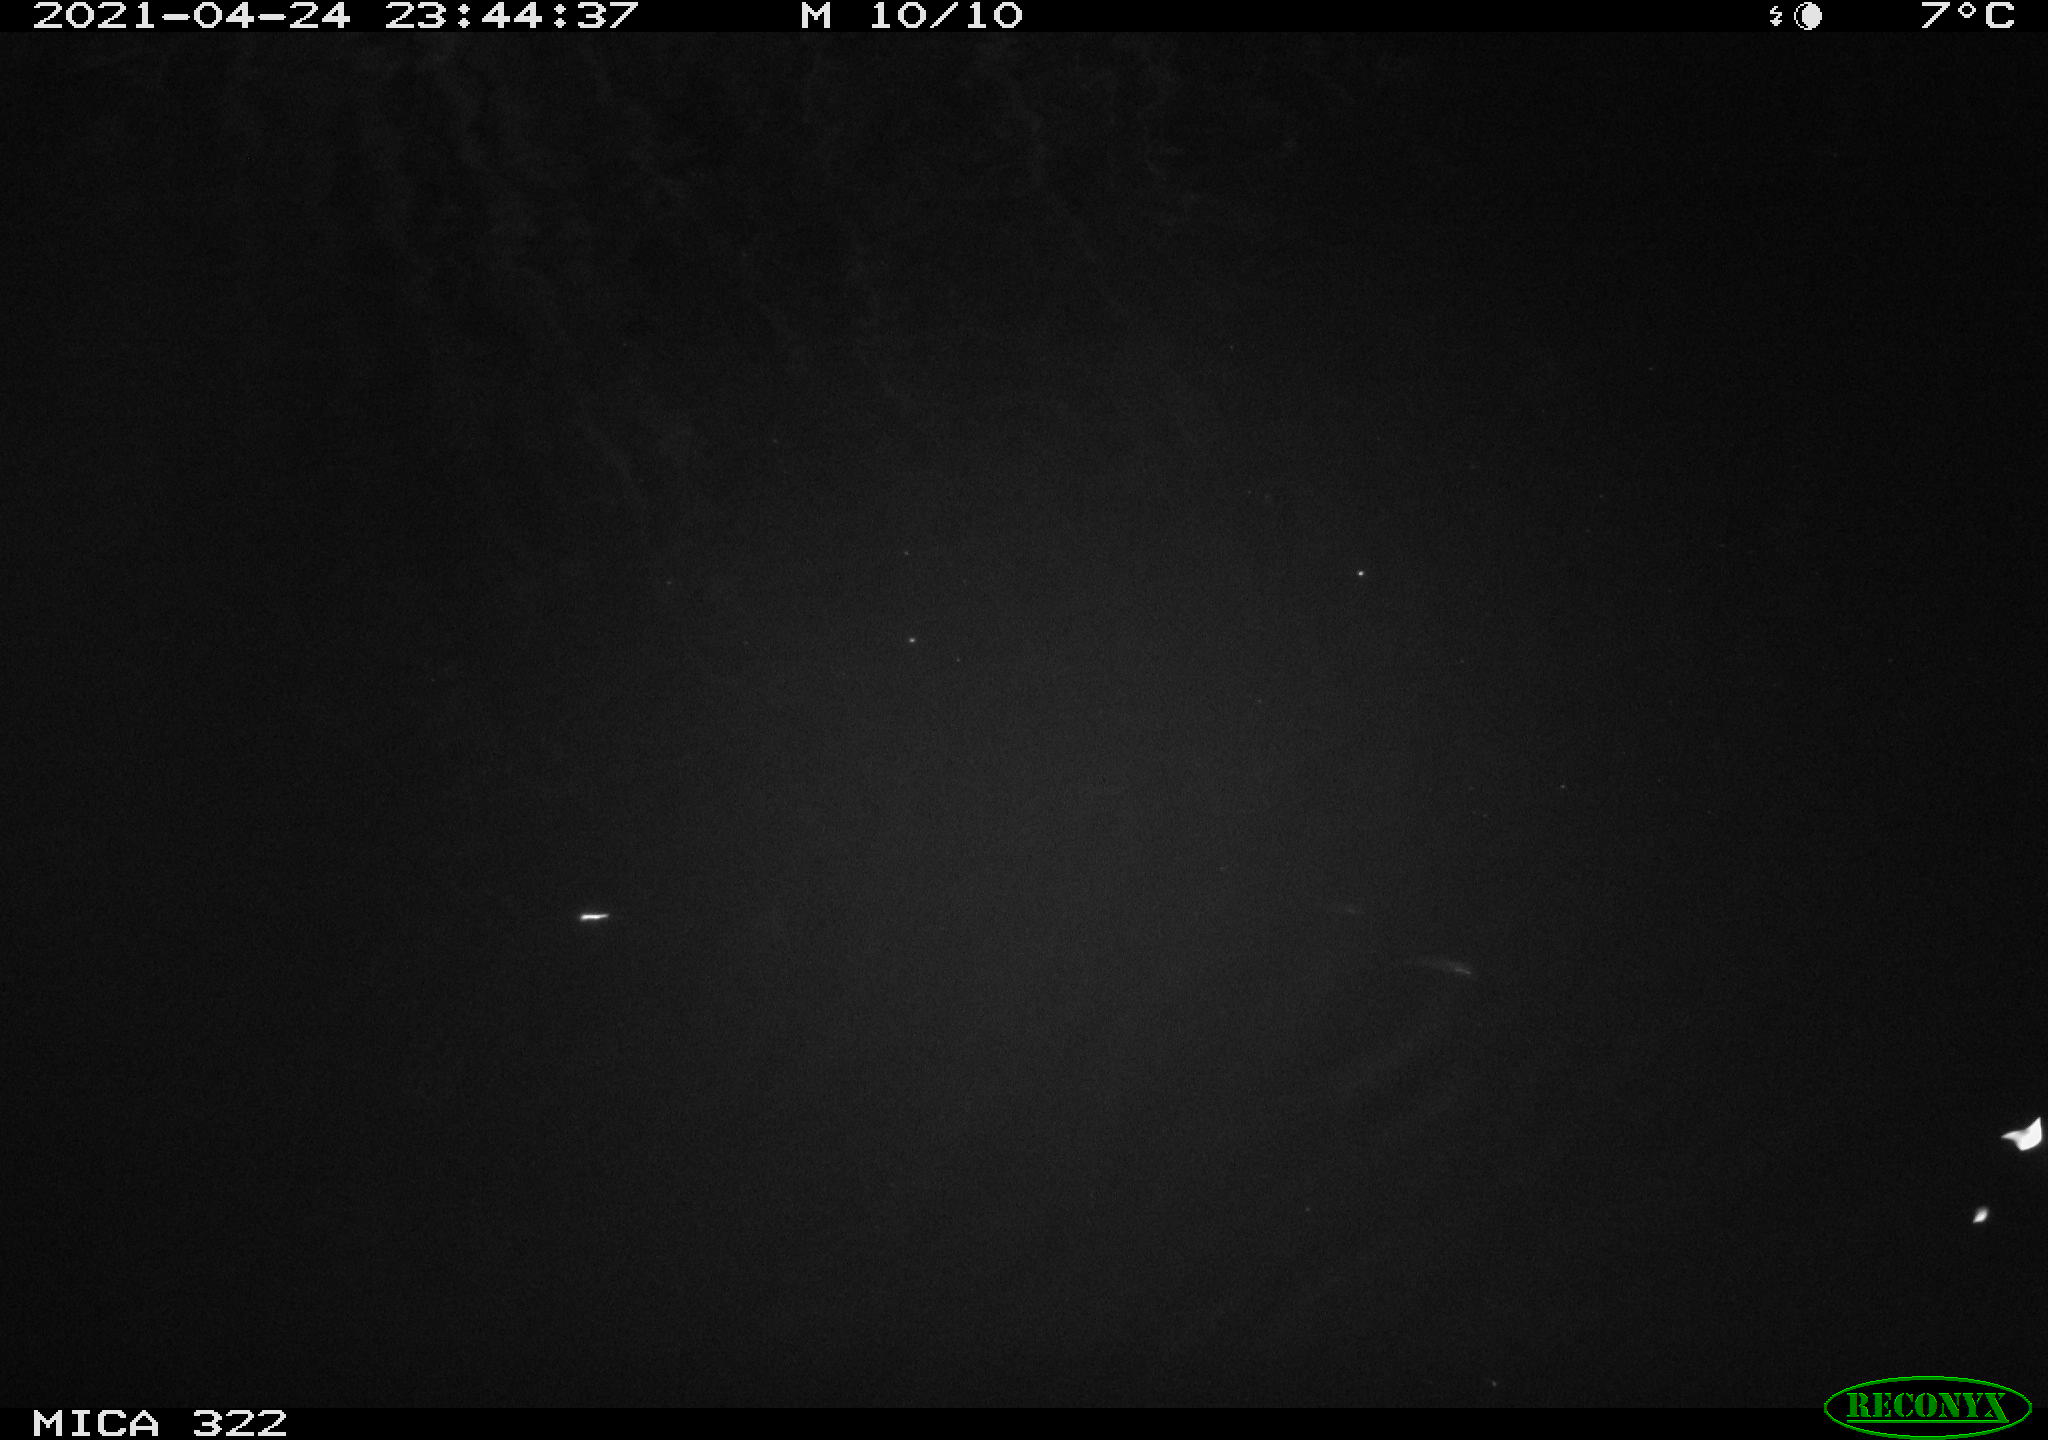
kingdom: Animalia
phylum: Chordata
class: Mammalia
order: Rodentia
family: Muridae
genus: Rattus
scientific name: Rattus norvegicus
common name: Brown rat
